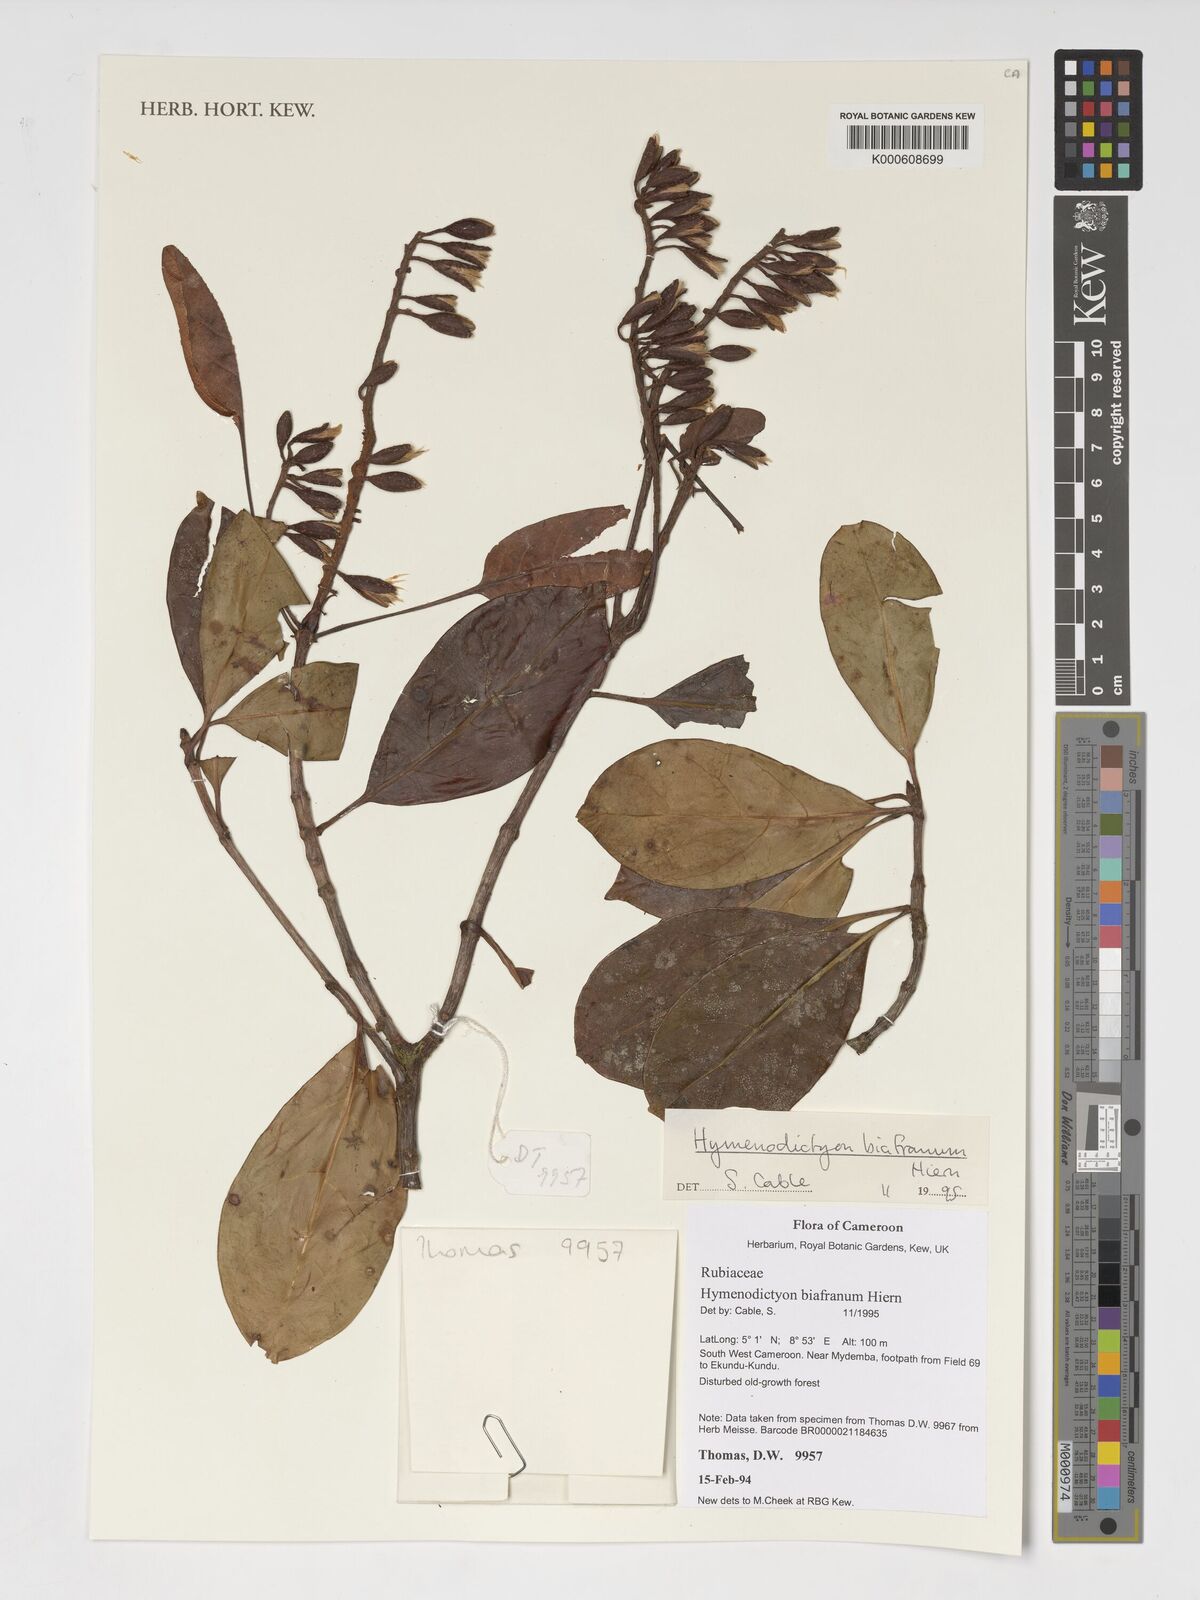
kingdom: Plantae
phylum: Tracheophyta
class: Magnoliopsida
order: Gentianales
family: Rubiaceae
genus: Hymenodictyon
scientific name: Hymenodictyon biafranum
